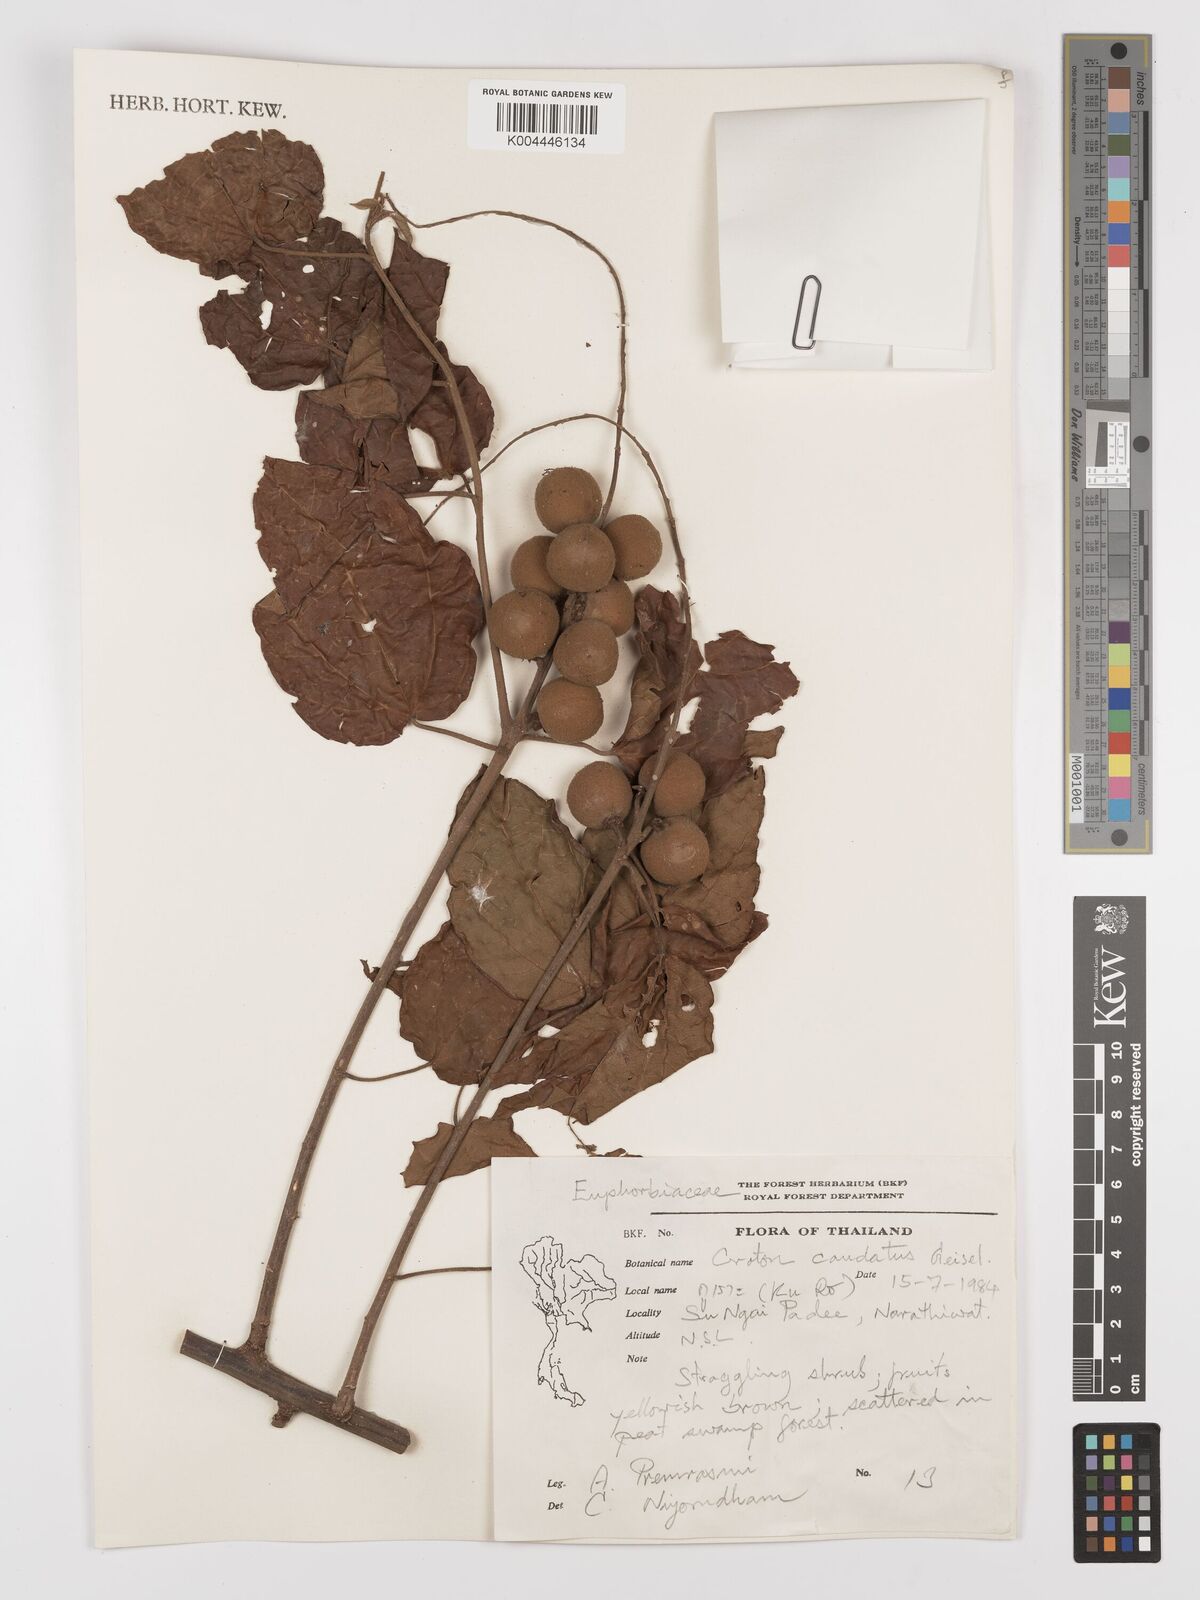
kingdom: Plantae
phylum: Tracheophyta
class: Magnoliopsida
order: Malpighiales
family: Euphorbiaceae
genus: Croton
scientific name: Croton caudatus
